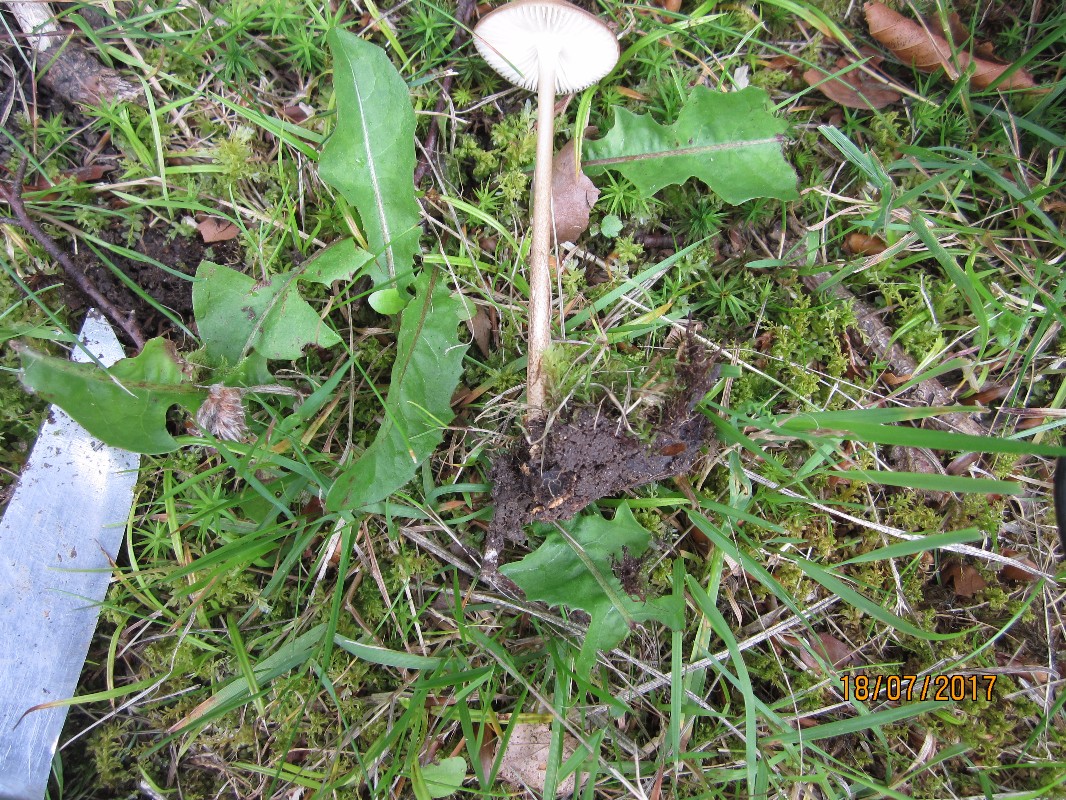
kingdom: Fungi
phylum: Basidiomycota
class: Agaricomycetes
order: Agaricales
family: Physalacriaceae
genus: Hymenopellis
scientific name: Hymenopellis radicata
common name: almindelig pælerodshat
